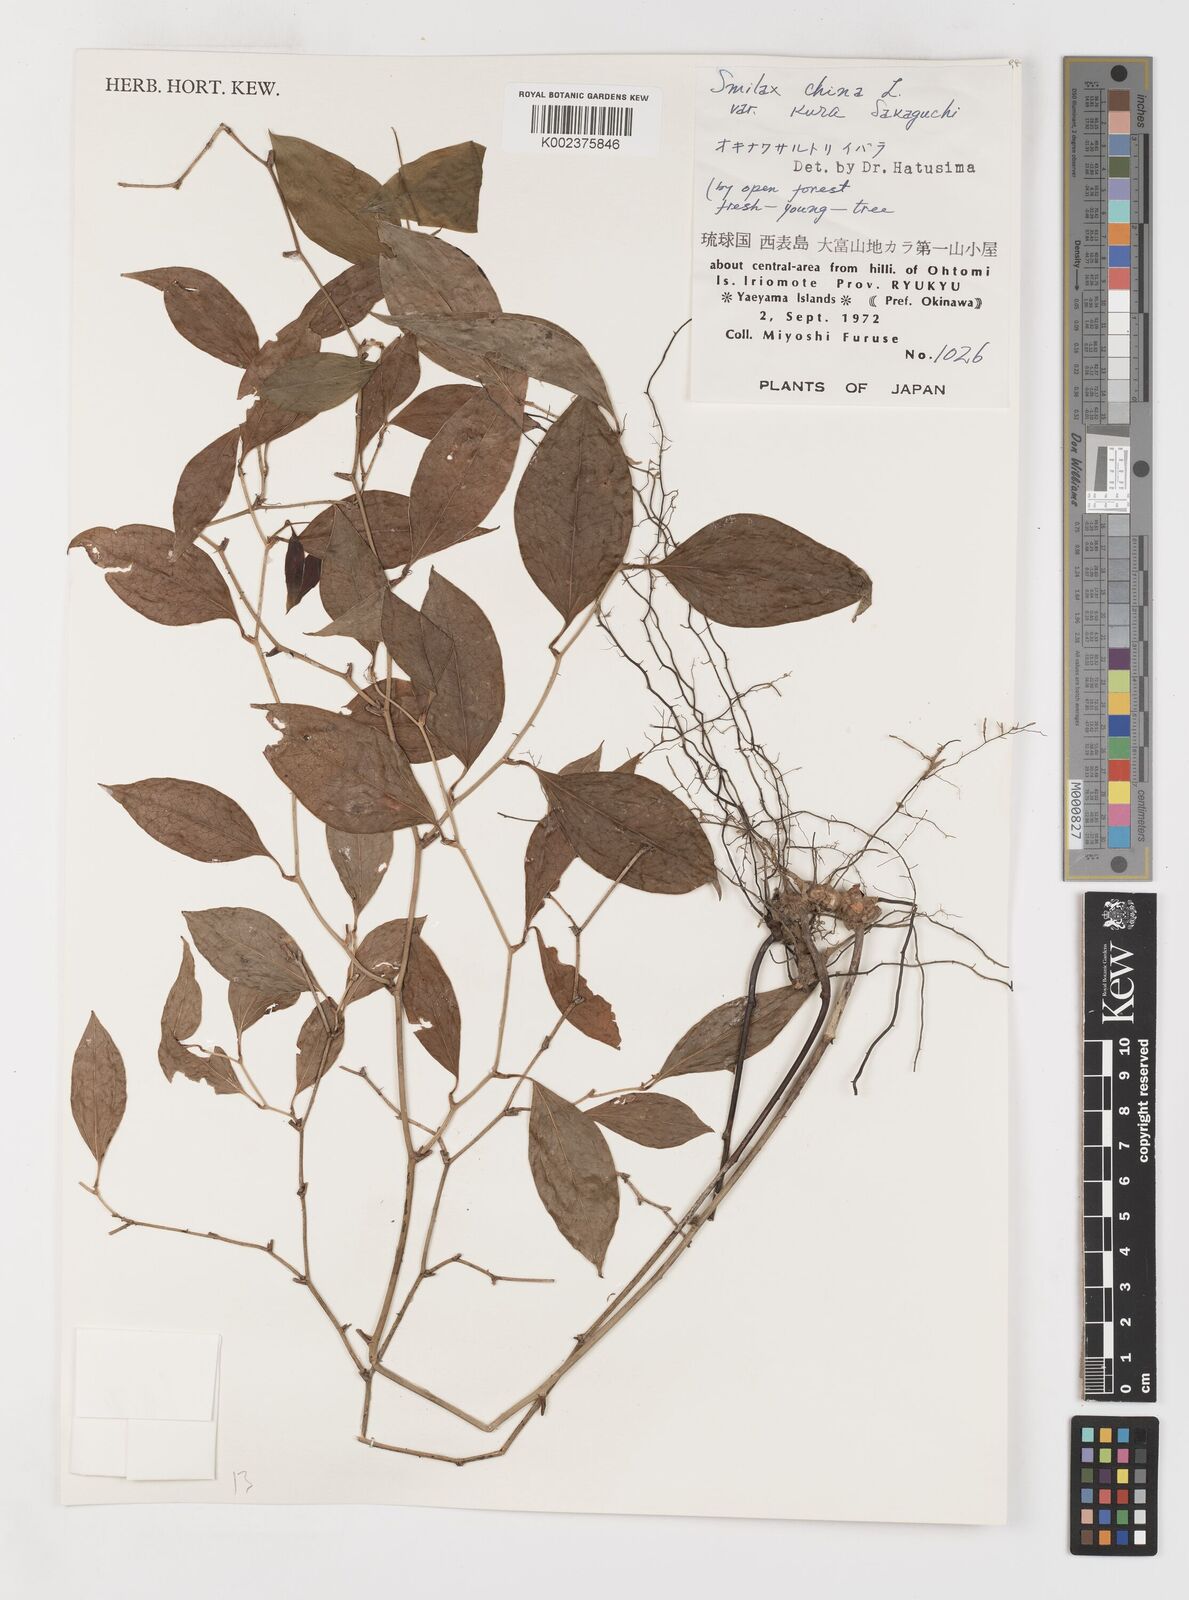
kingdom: Plantae
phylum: Tracheophyta
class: Liliopsida
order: Liliales
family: Smilacaceae
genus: Smilax
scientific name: Smilax china
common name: Chinaroot
